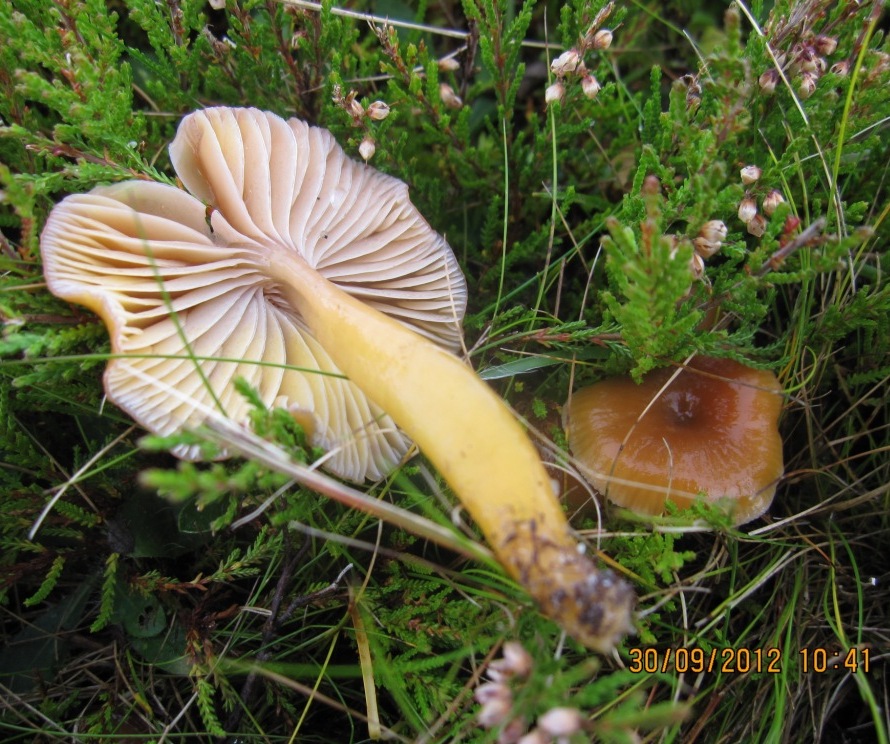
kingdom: Fungi
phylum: Basidiomycota
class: Agaricomycetes
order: Agaricales
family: Hygrophoraceae
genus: Gliophorus
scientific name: Gliophorus laetus
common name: brusk-vokshat
